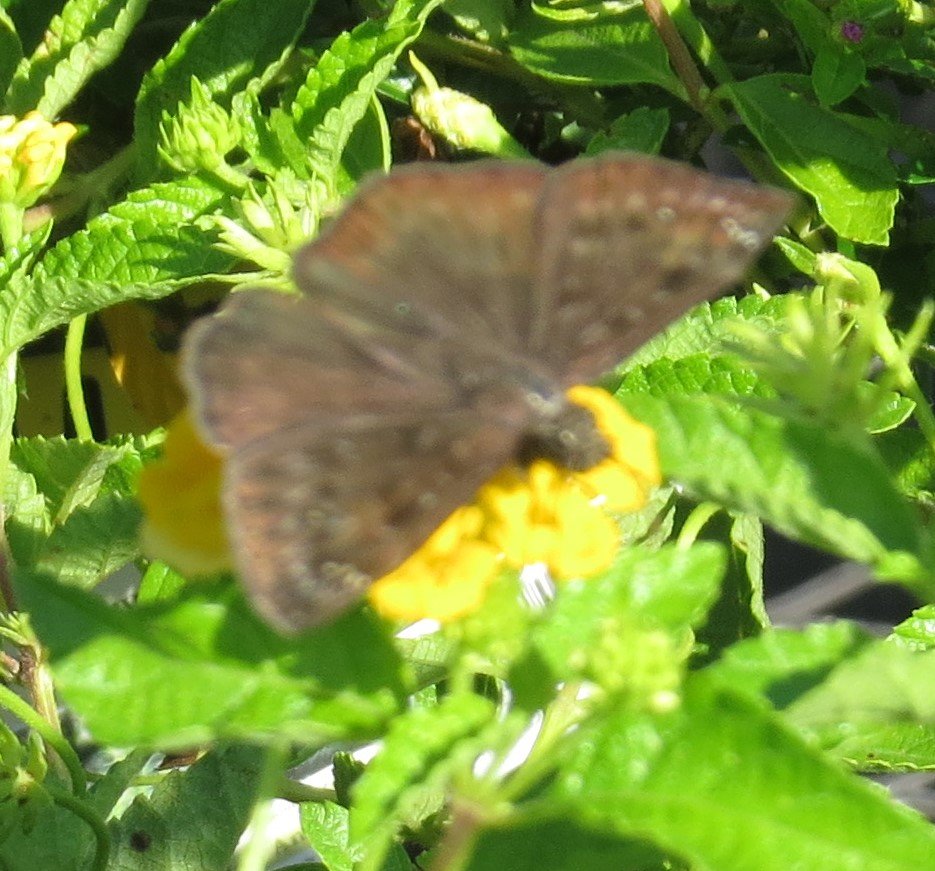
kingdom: Animalia
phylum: Arthropoda
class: Insecta
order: Lepidoptera
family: Hesperiidae
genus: Gesta
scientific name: Gesta
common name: Horace's Duskywing
